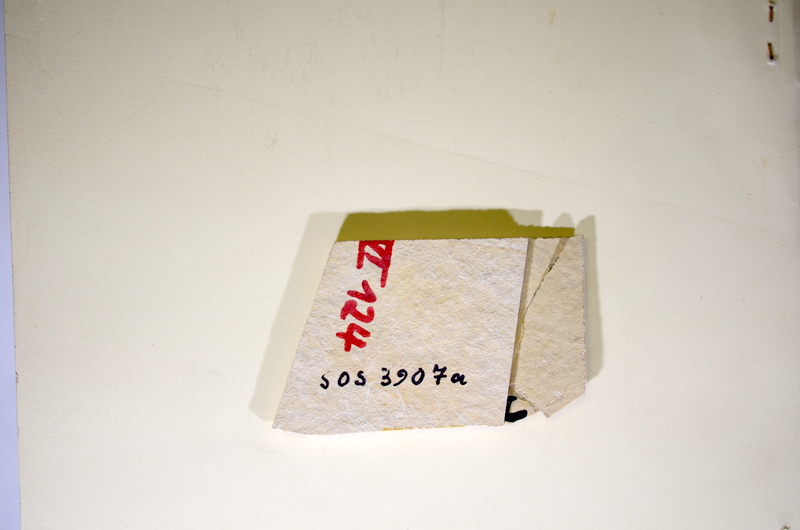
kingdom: Animalia
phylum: Chordata
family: Ascalaboidae
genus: Tharsis
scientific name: Tharsis dubius
